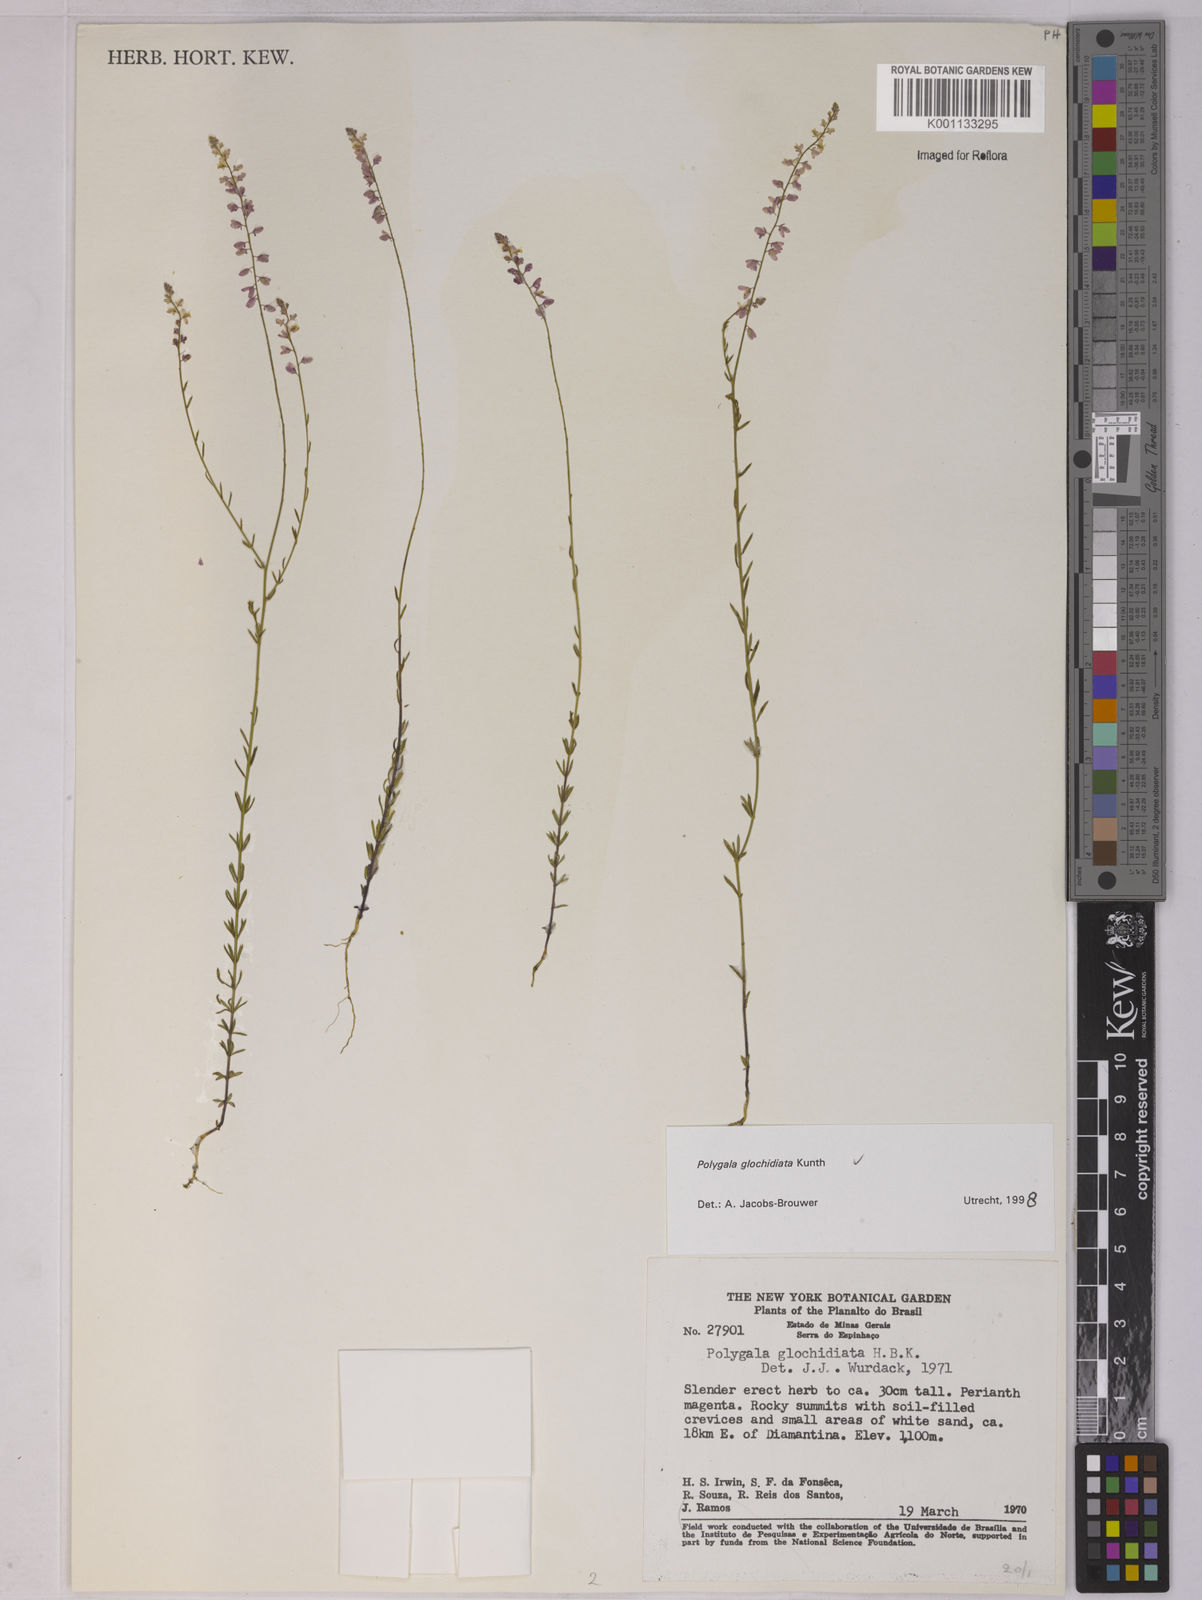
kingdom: Plantae
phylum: Tracheophyta
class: Magnoliopsida
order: Fabales
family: Polygalaceae
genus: Polygala
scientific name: Polygala glochidiata
